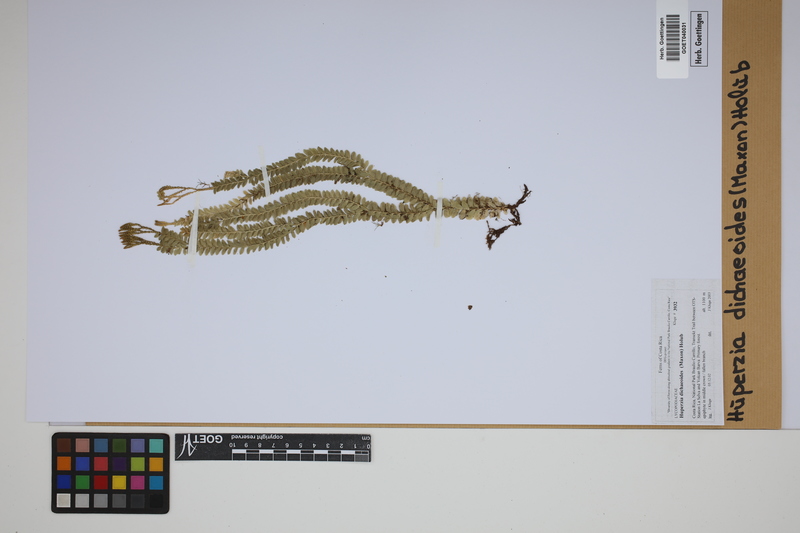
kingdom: Plantae
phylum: Tracheophyta
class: Lycopodiopsida
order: Lycopodiales
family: Lycopodiaceae
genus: Phlegmariurus
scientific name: Phlegmariurus dichaeoides
